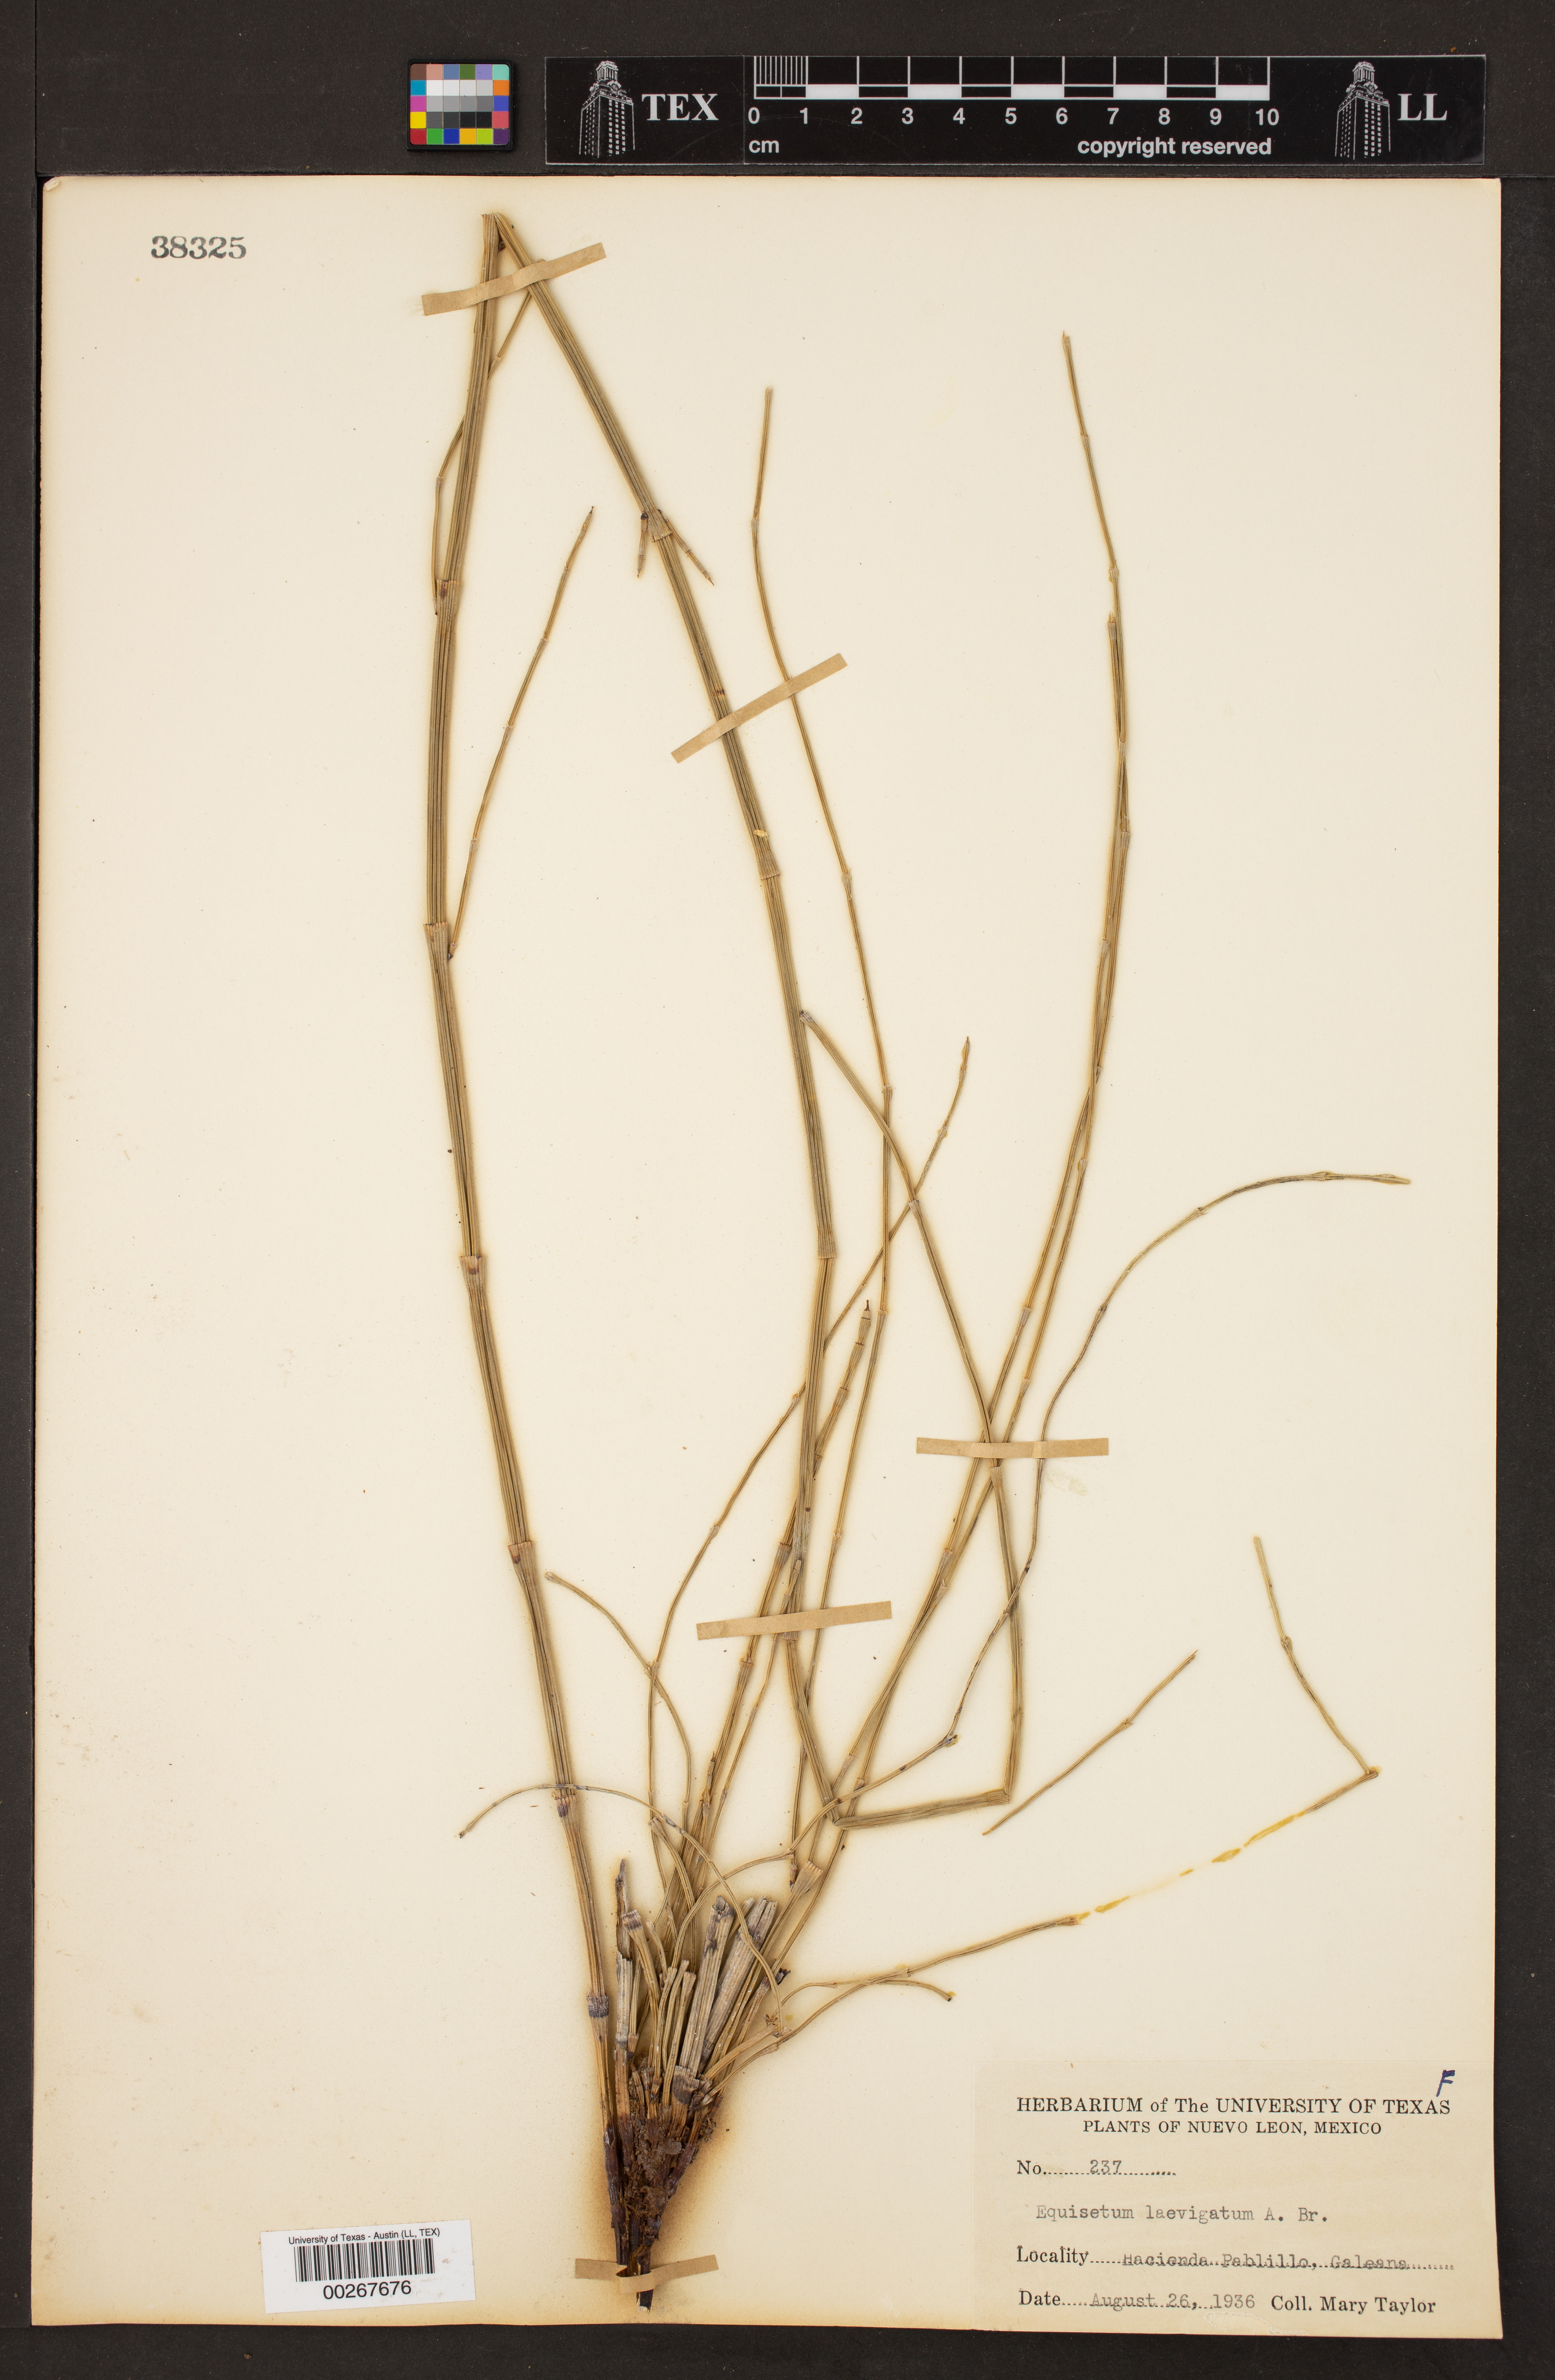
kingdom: Plantae
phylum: Tracheophyta
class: Polypodiopsida
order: Equisetales
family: Equisetaceae
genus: Equisetum
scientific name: Equisetum laevigatum
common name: Smooth scouring-rush
